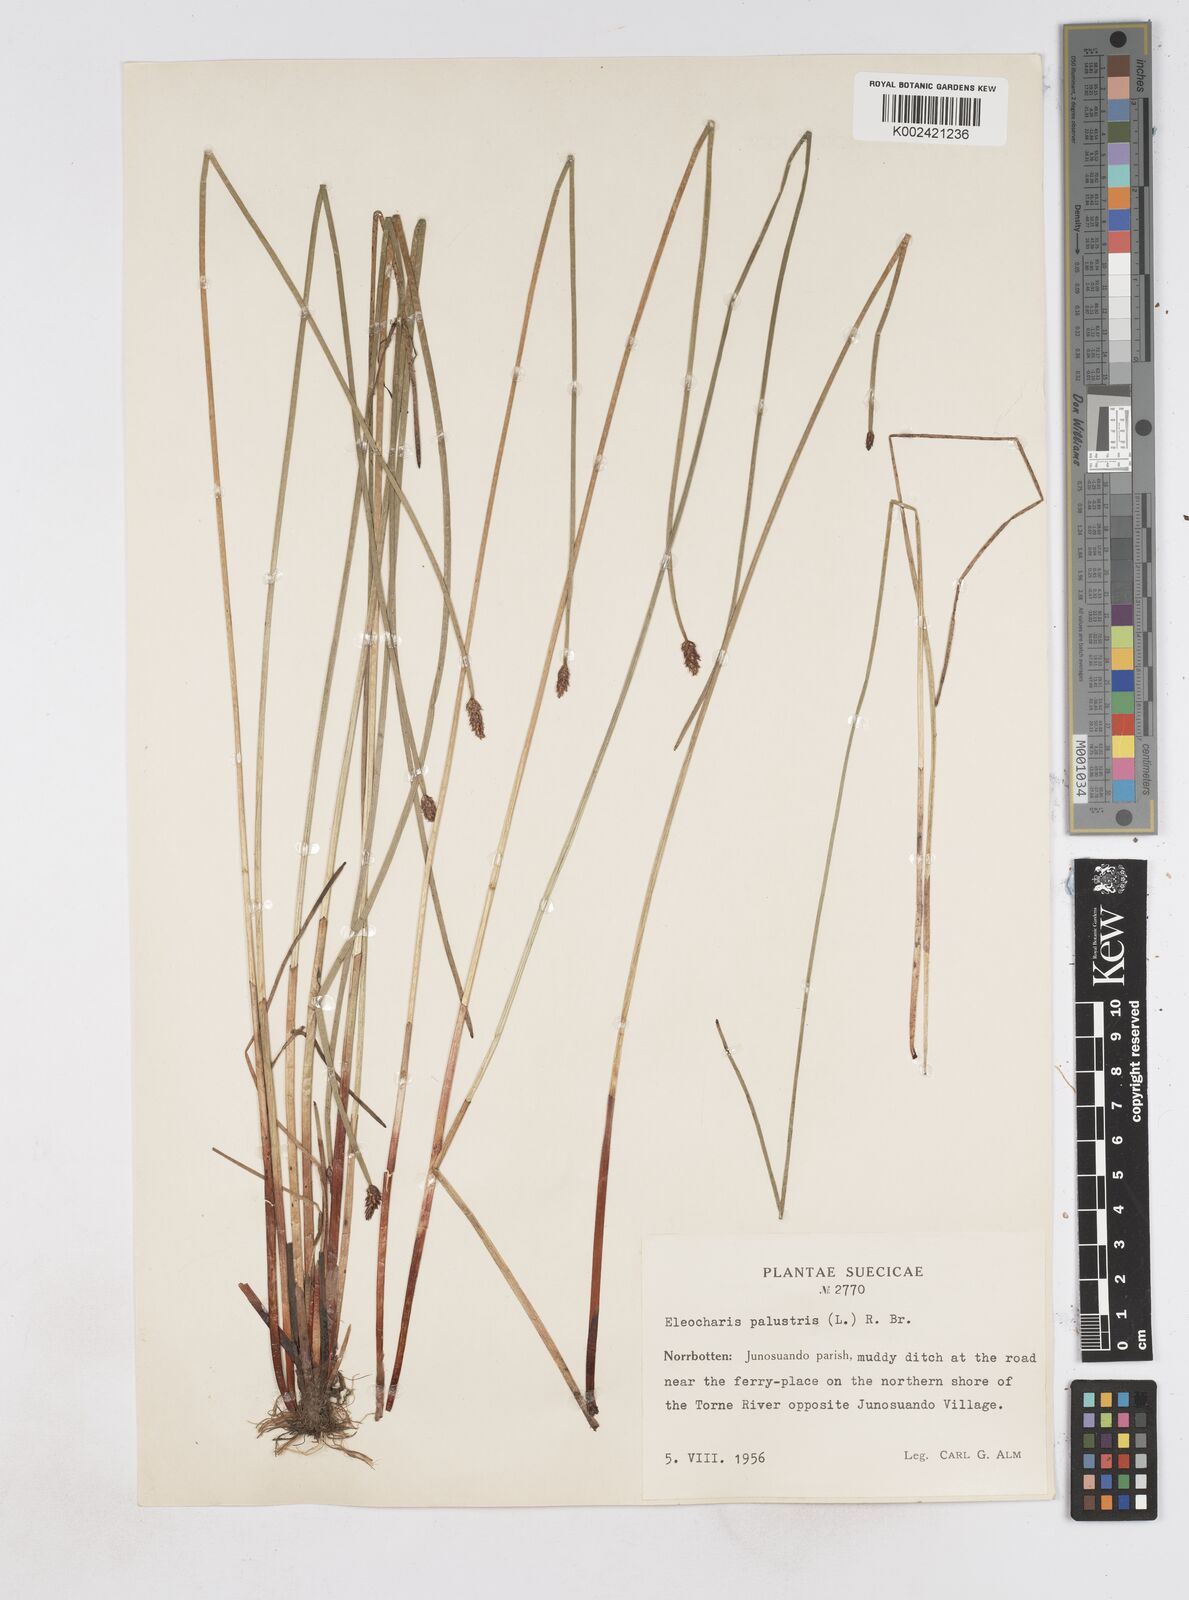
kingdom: Plantae
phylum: Tracheophyta
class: Liliopsida
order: Poales
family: Cyperaceae
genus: Eleocharis
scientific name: Eleocharis palustris
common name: Common spike-rush
